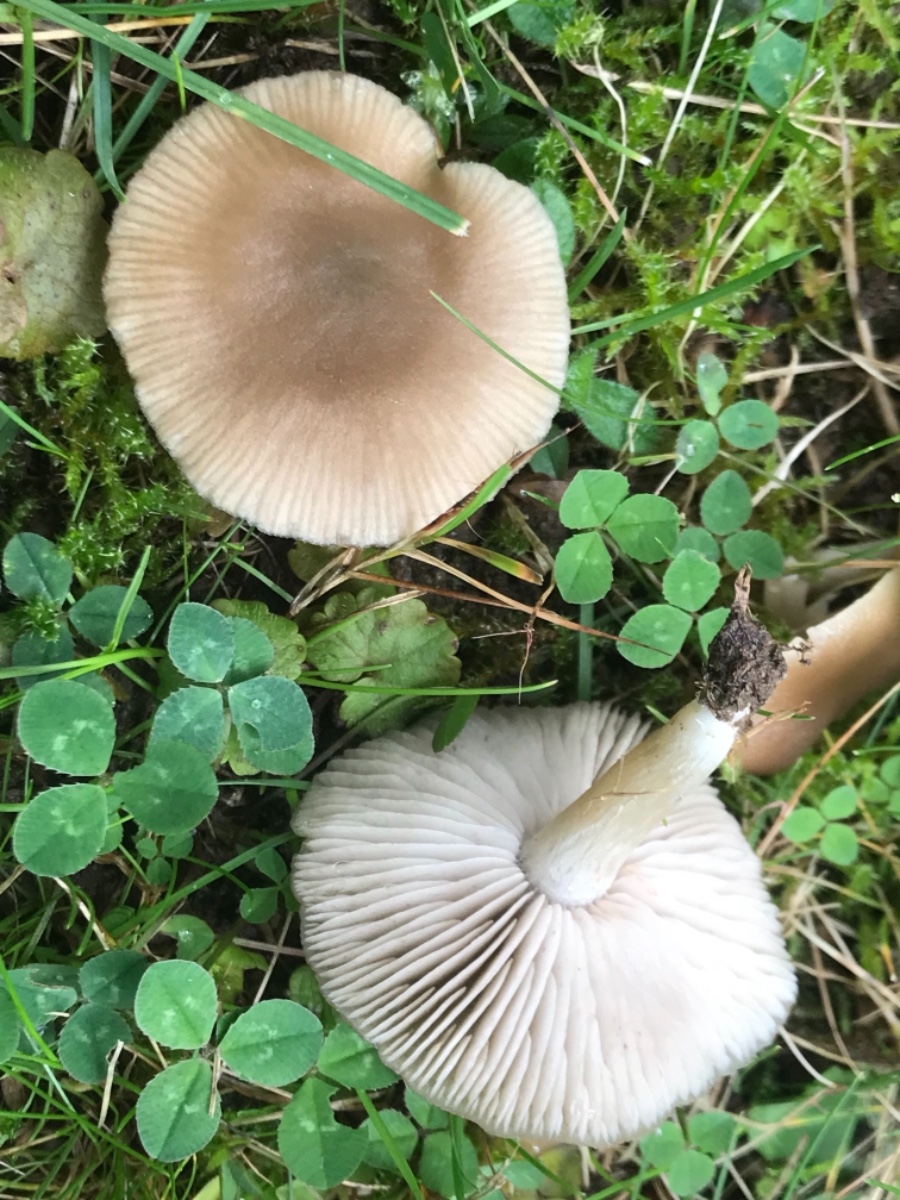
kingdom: Fungi
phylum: Basidiomycota
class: Agaricomycetes
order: Agaricales
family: Entolomataceae
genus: Entoloma
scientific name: Entoloma
